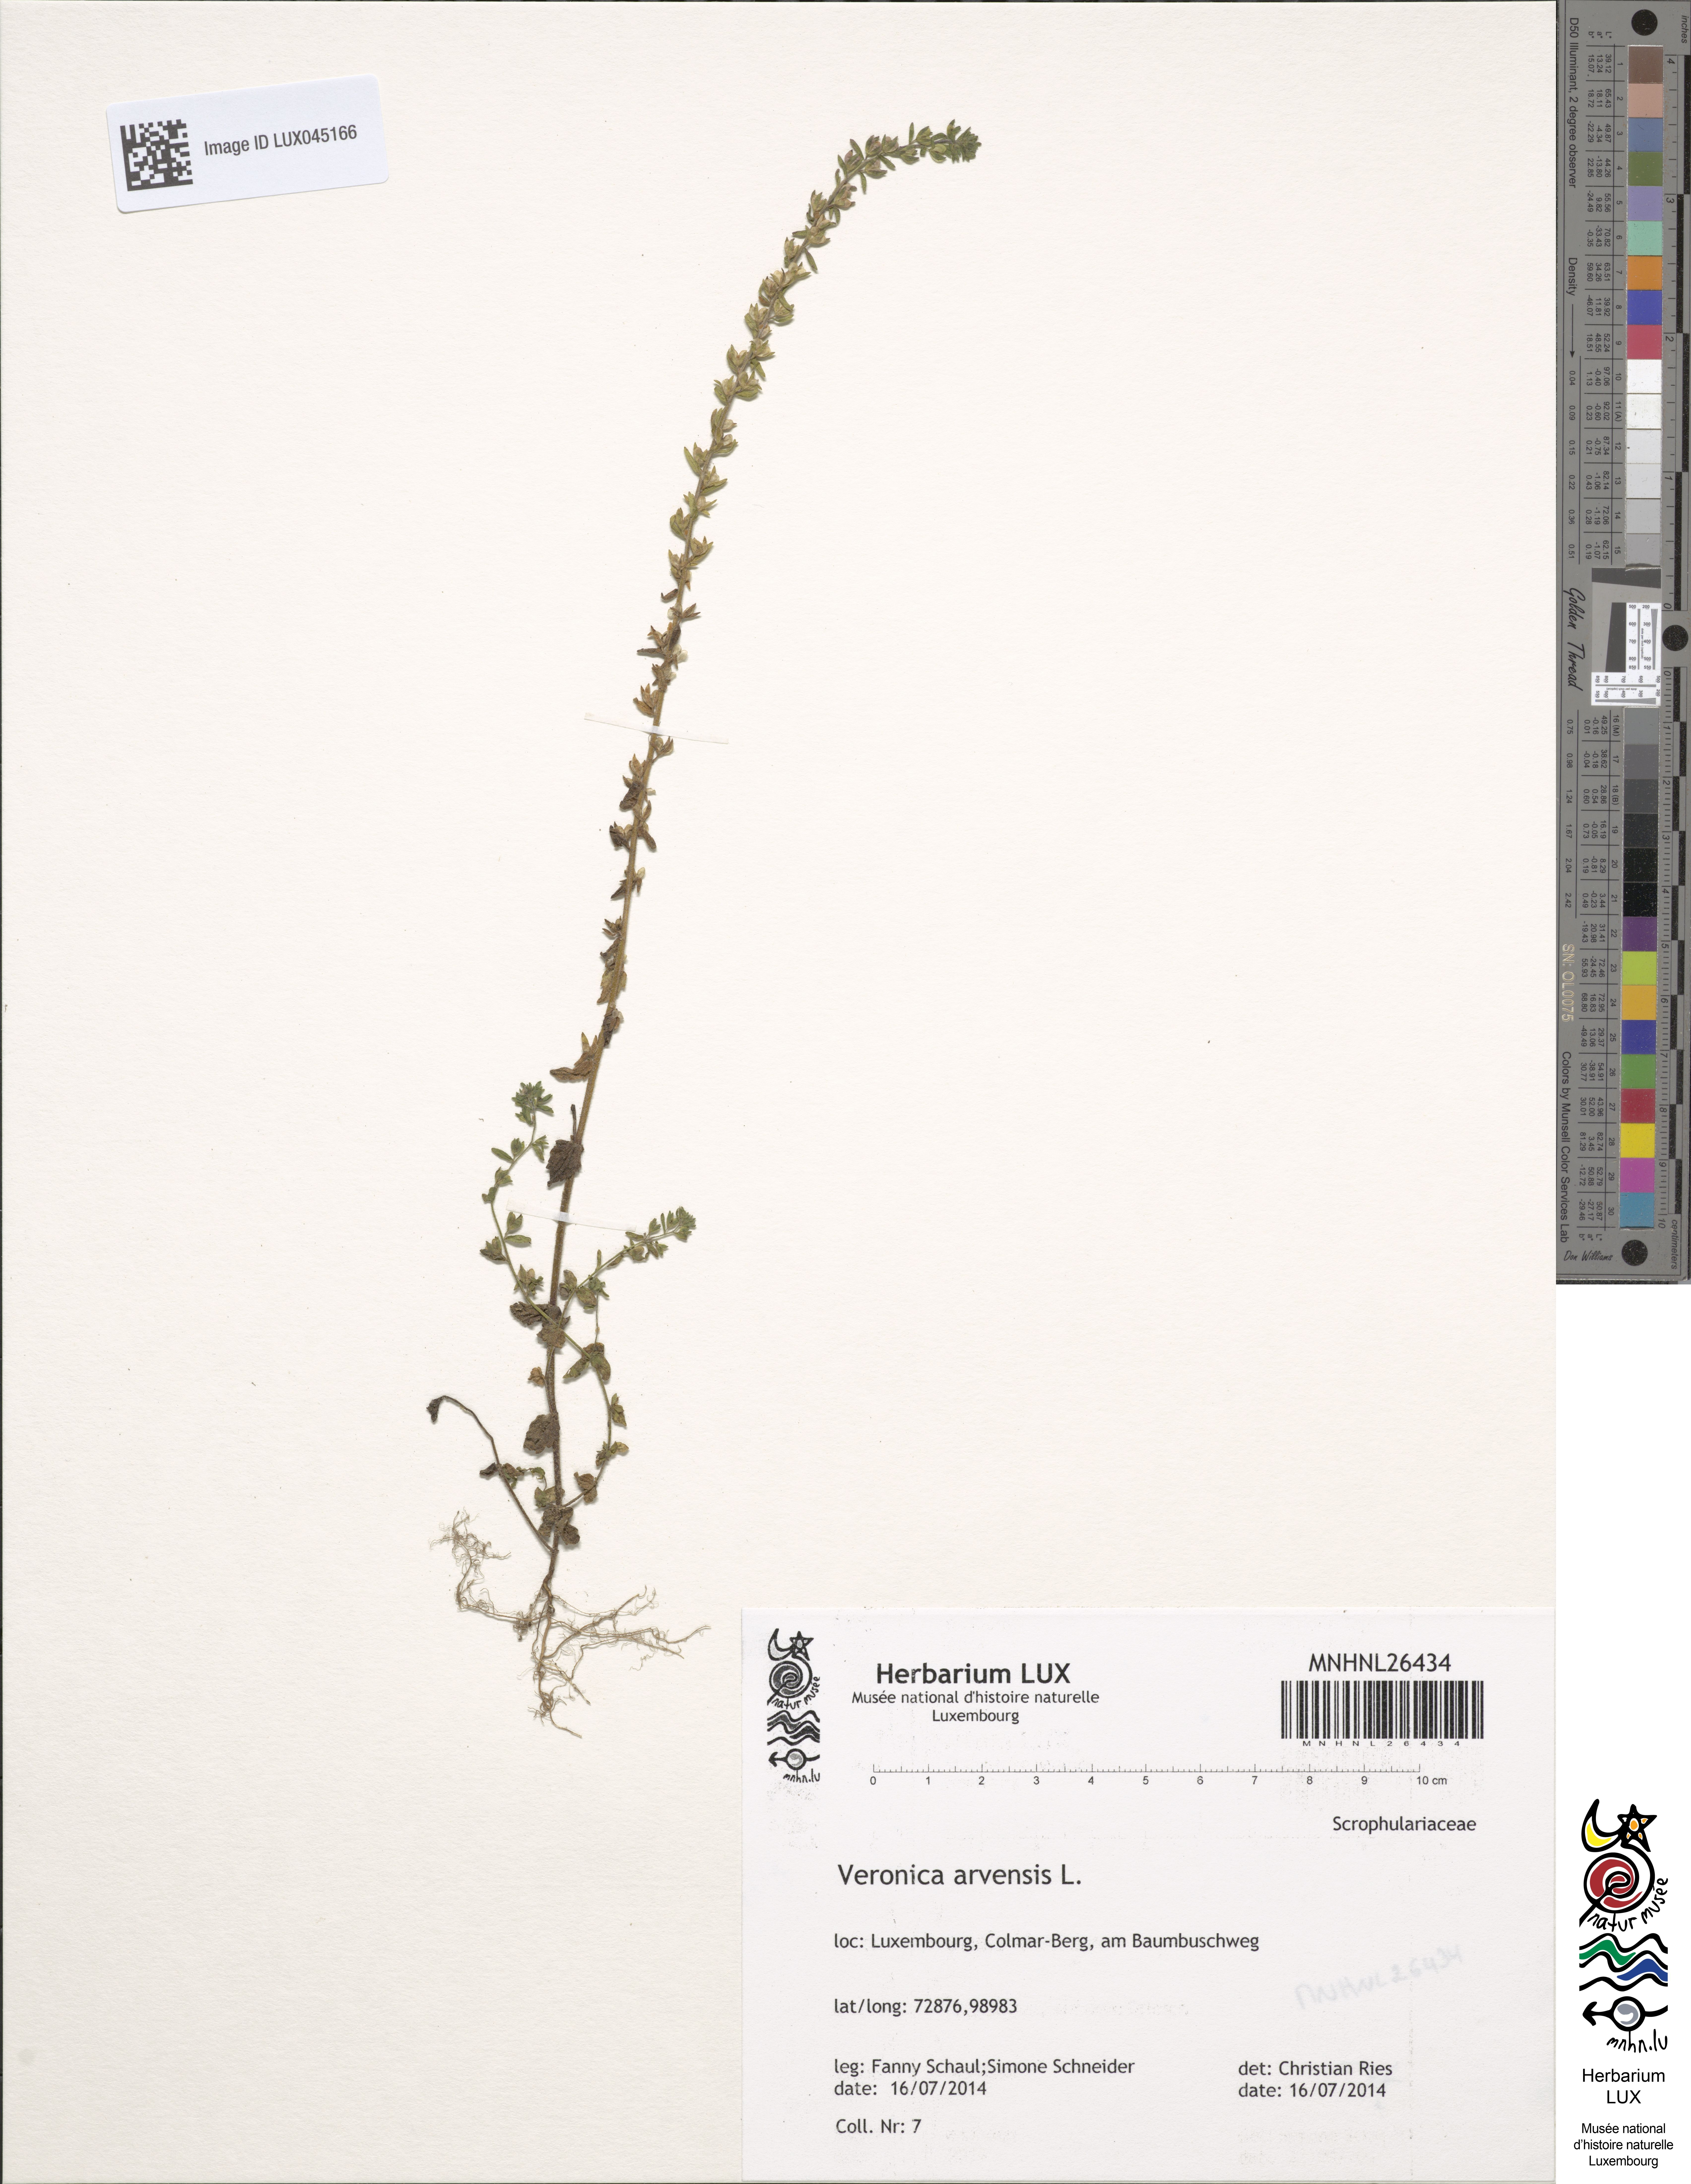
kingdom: Plantae
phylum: Tracheophyta
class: Magnoliopsida
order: Lamiales
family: Plantaginaceae
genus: Veronica
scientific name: Veronica arvensis
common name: Corn speedwell
